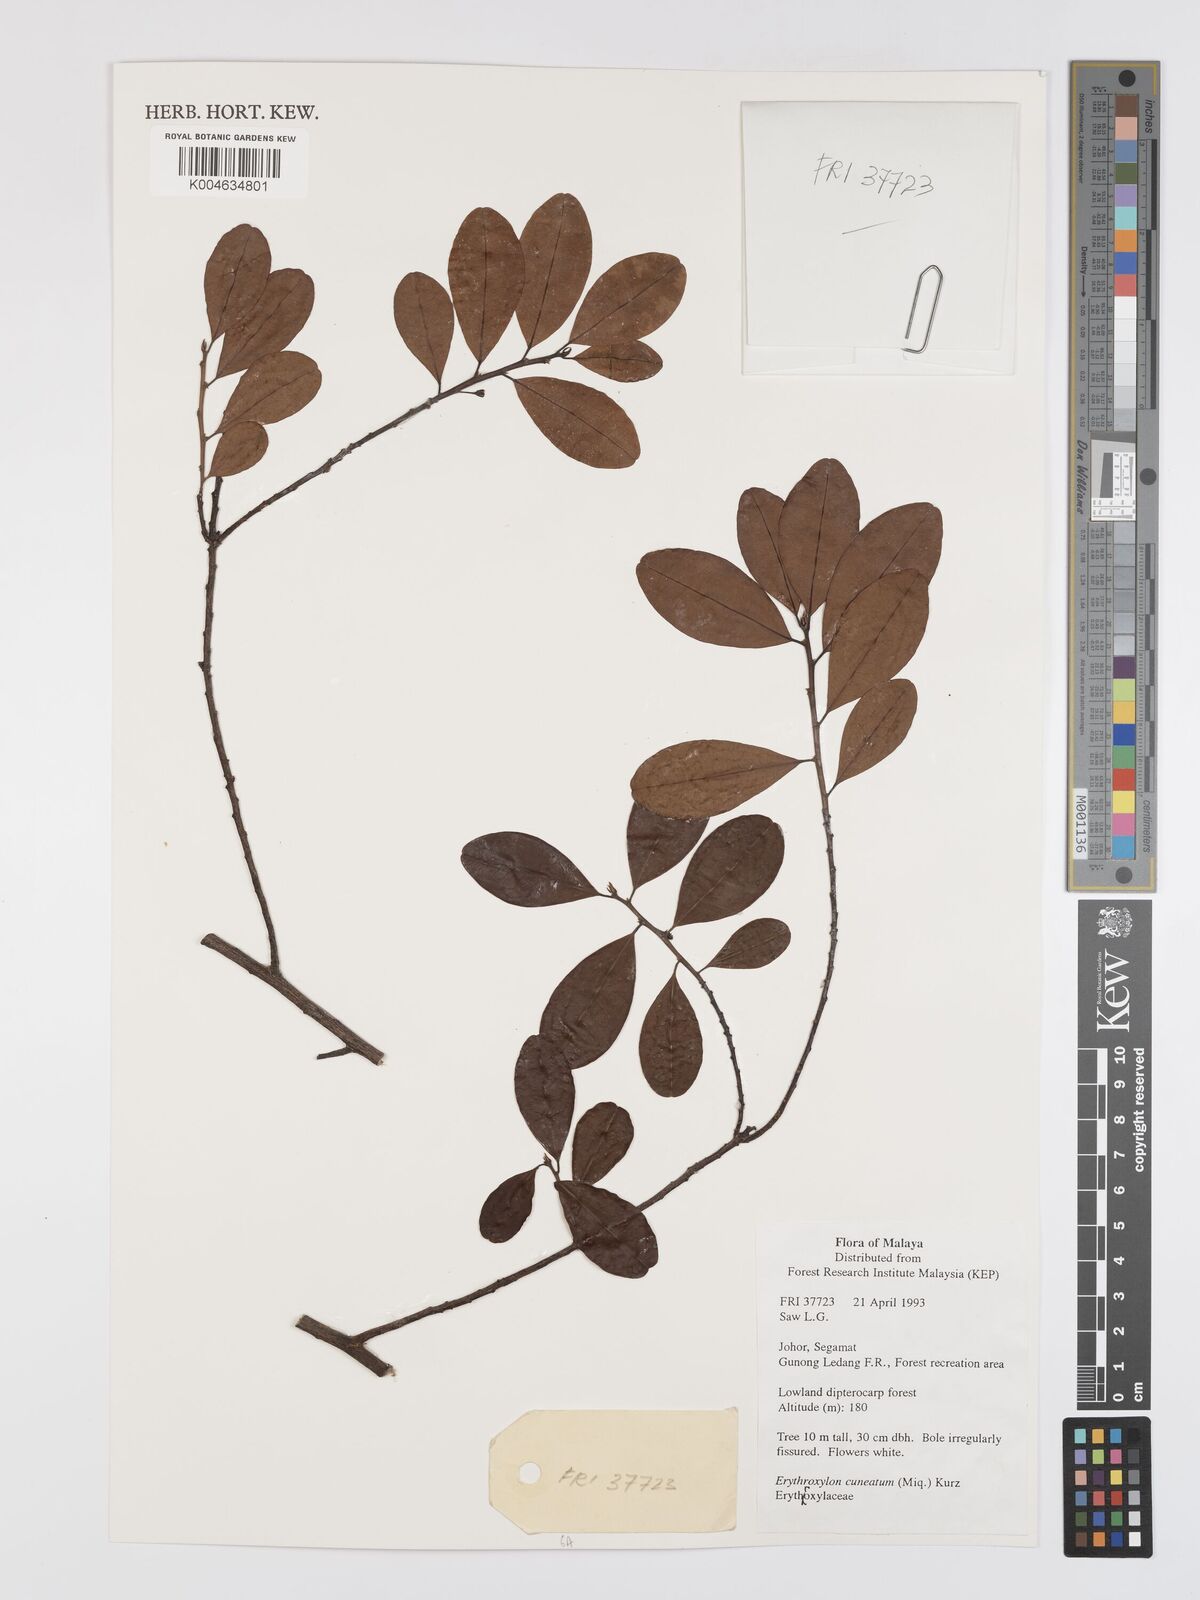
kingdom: Plantae
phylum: Tracheophyta
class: Magnoliopsida
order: Malpighiales
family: Erythroxylaceae
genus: Erythroxylum
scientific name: Erythroxylum cuneatum
